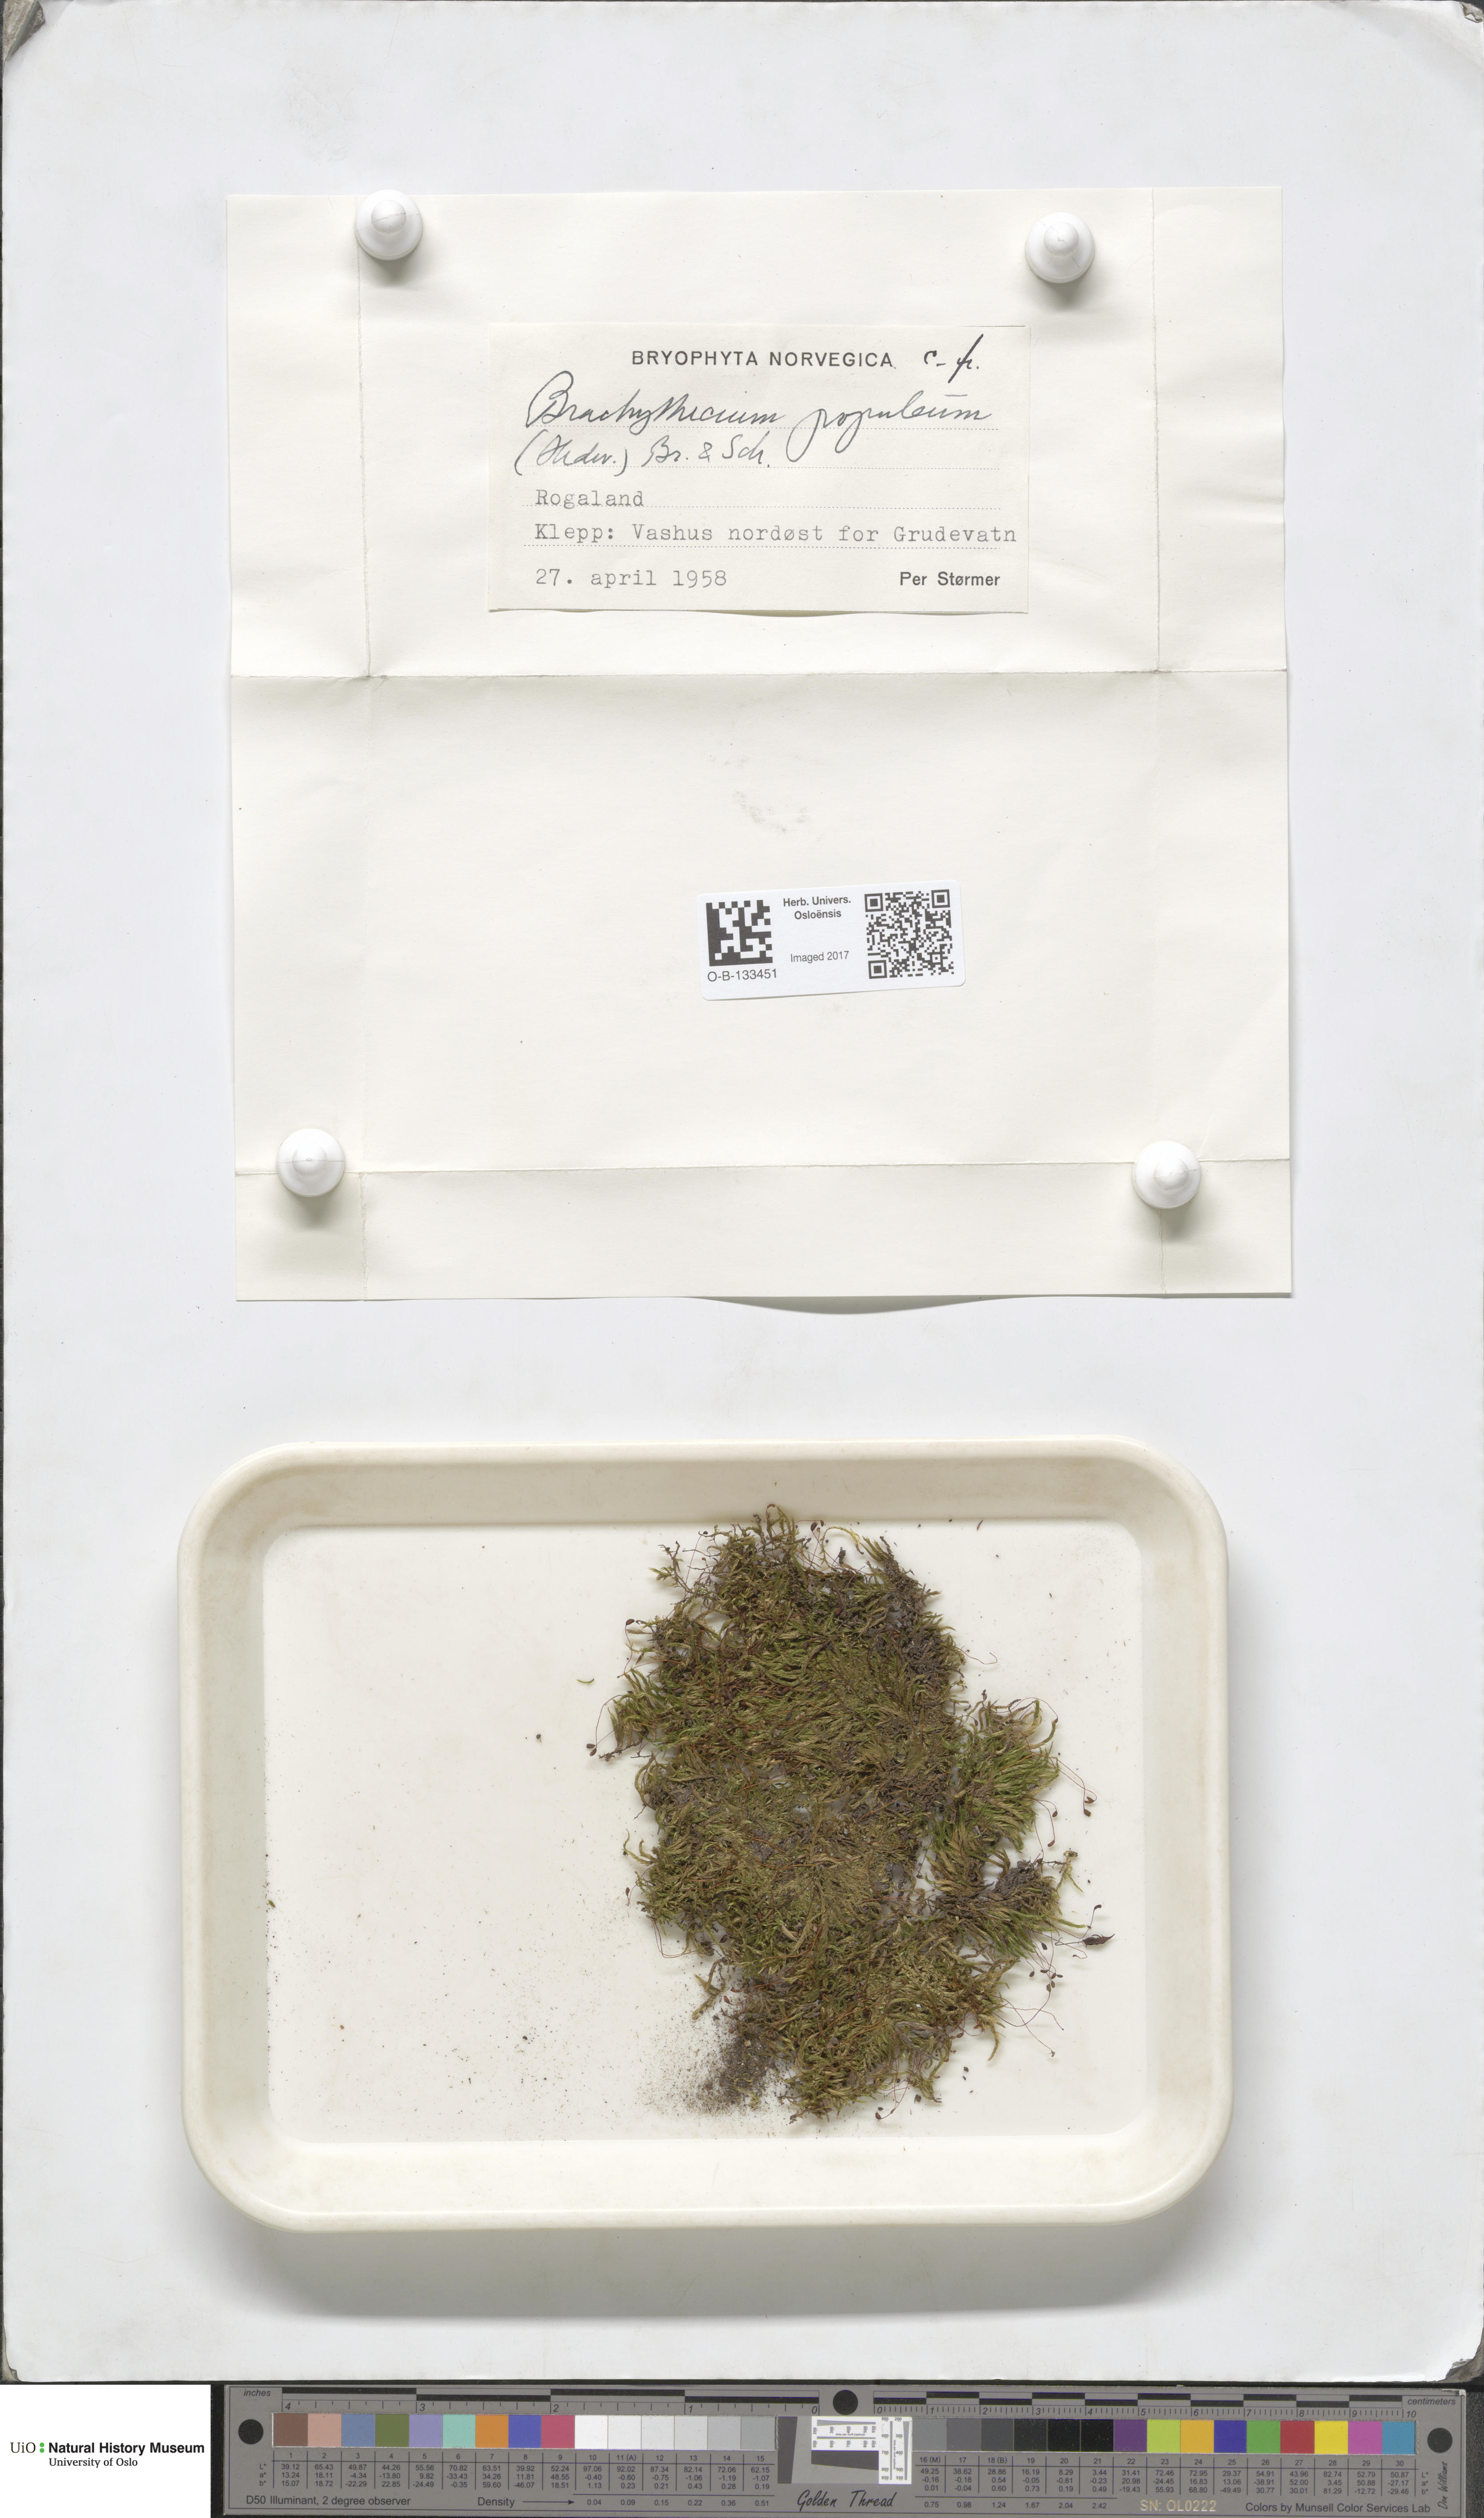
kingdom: Plantae
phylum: Bryophyta
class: Bryopsida
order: Hypnales
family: Brachytheciaceae
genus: Sciuro-hypnum
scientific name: Sciuro-hypnum plumosum
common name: Rusty feather-moss
